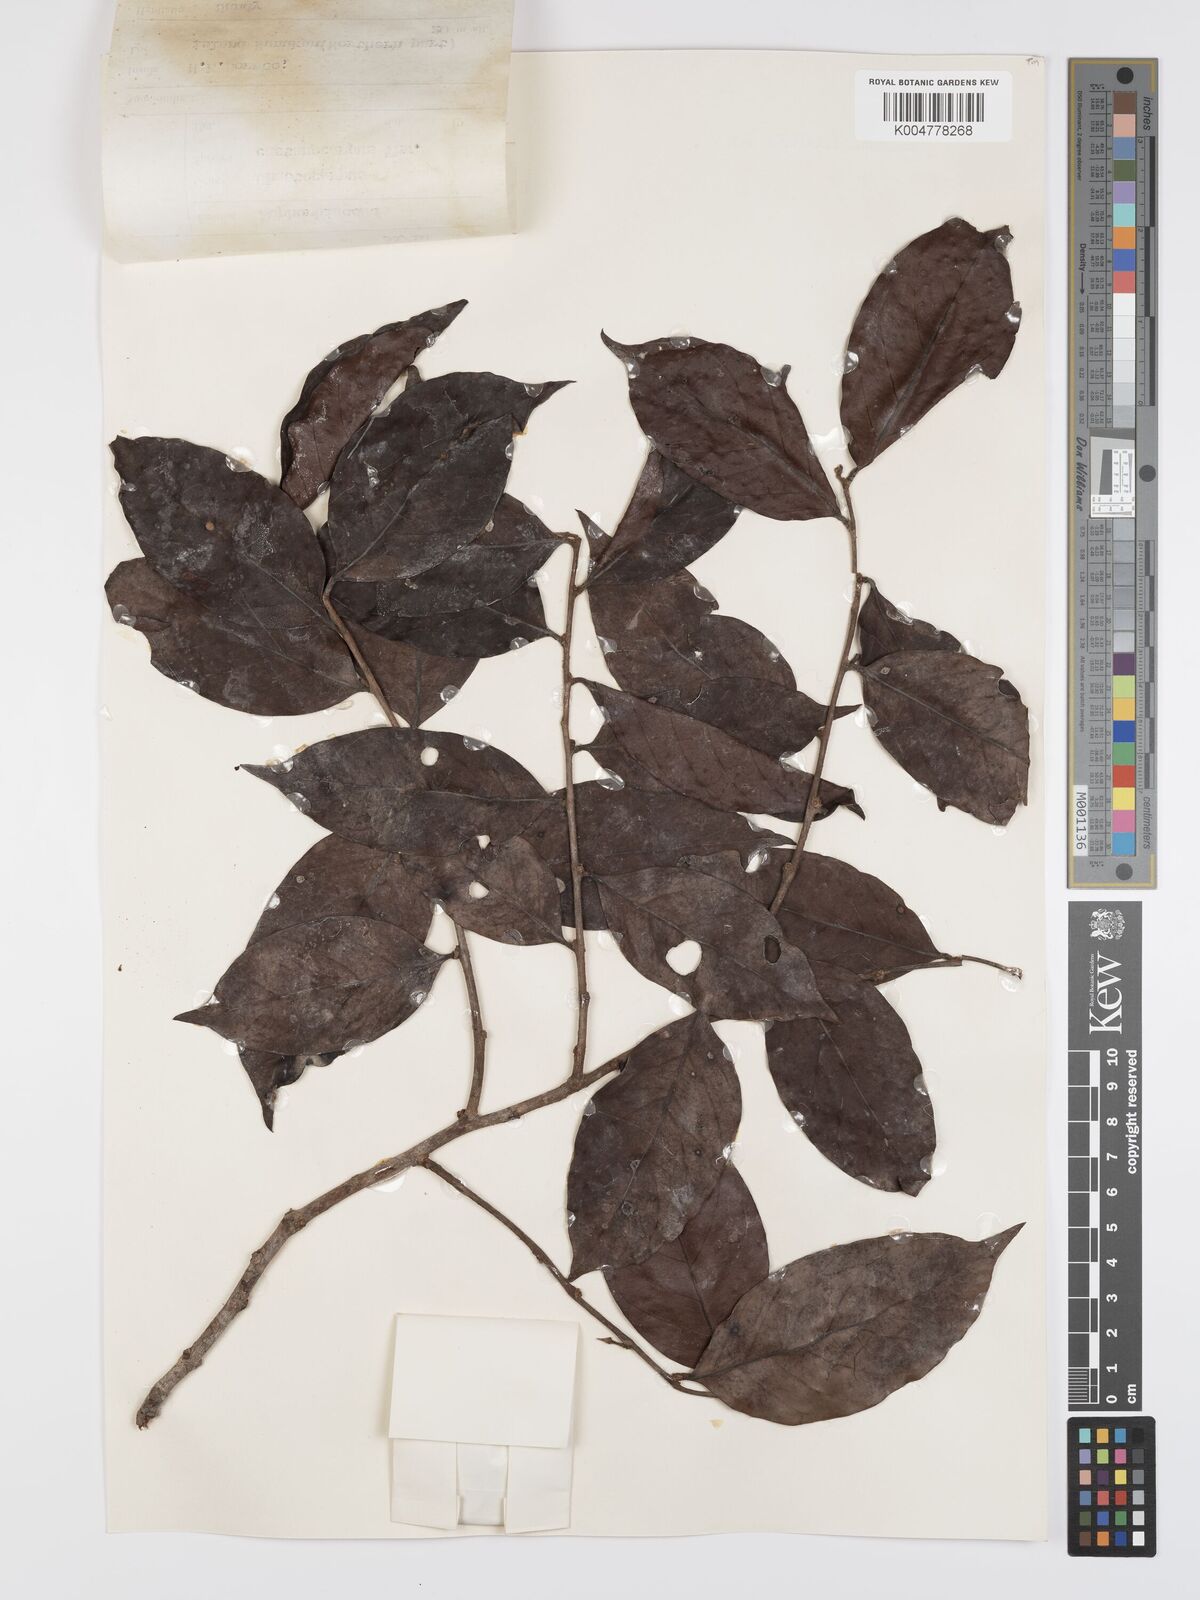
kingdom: Plantae
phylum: Tracheophyta
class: Magnoliopsida
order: Malpighiales
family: Peraceae
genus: Chaetocarpus
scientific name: Chaetocarpus castanocarpus
